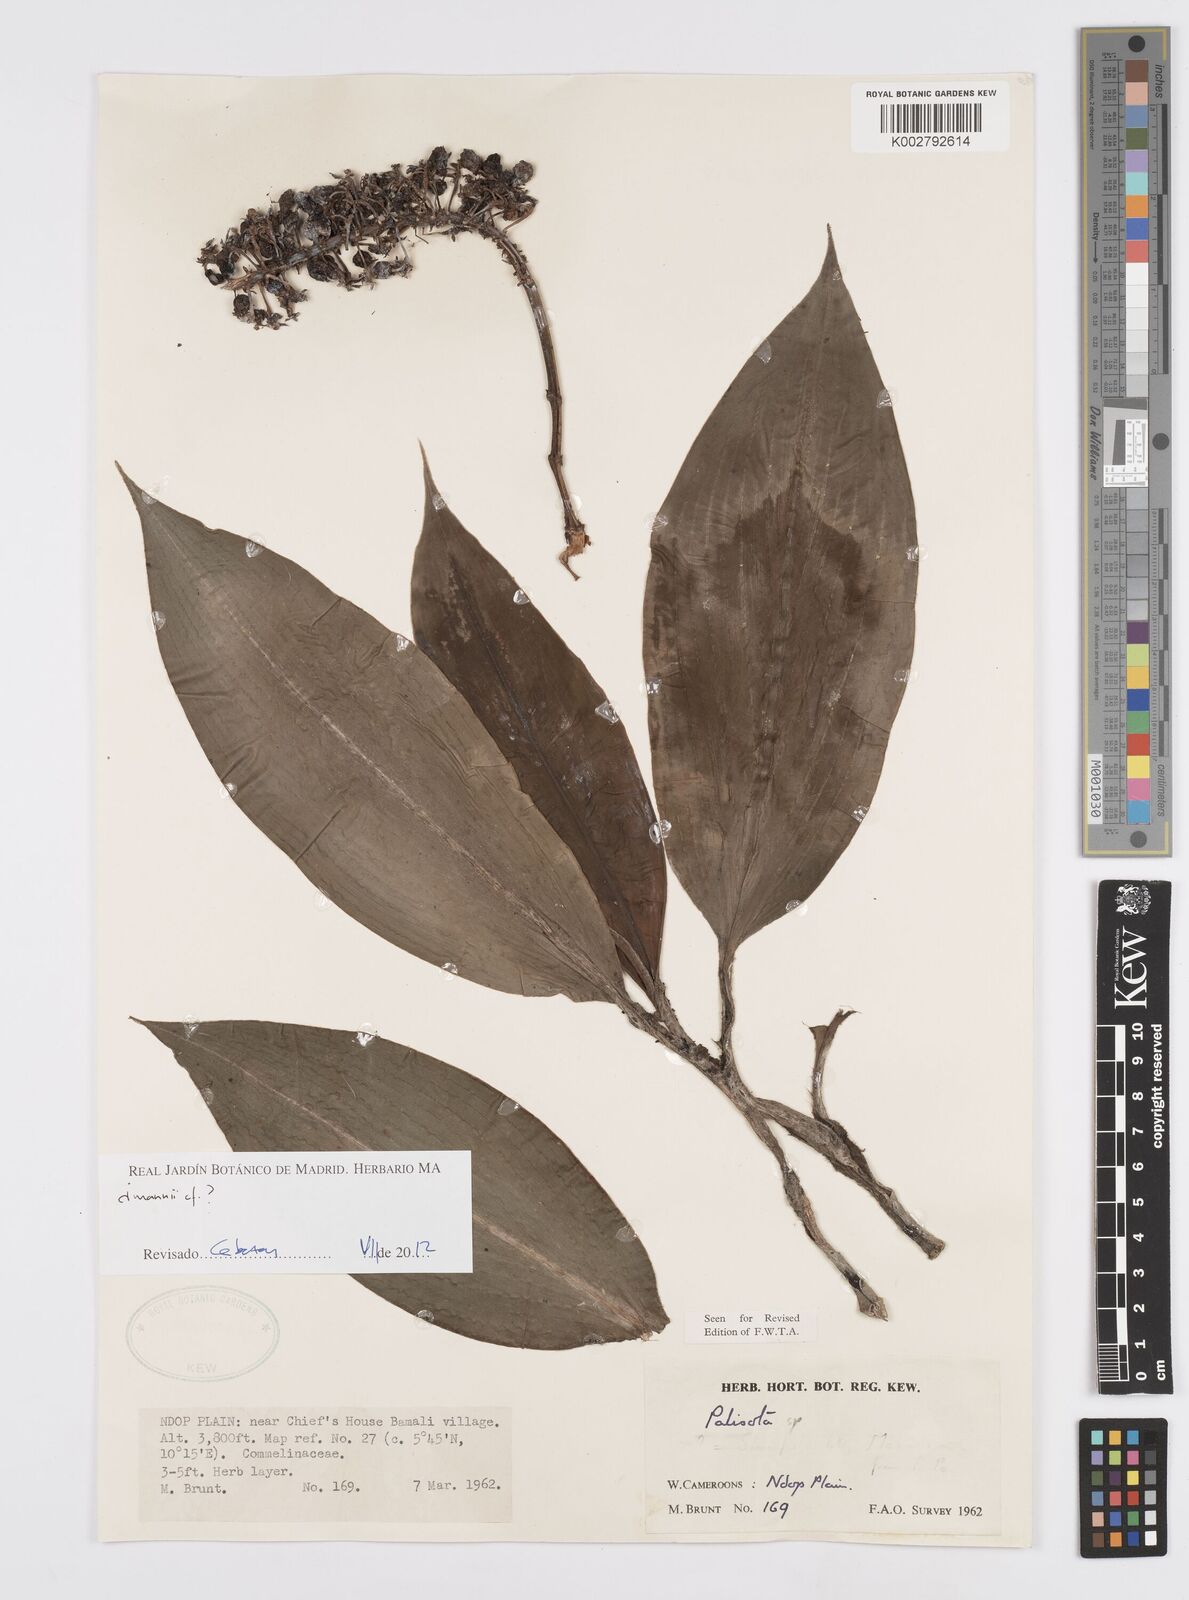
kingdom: Plantae
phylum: Tracheophyta
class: Liliopsida
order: Commelinales
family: Commelinaceae
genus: Palisota
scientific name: Palisota
